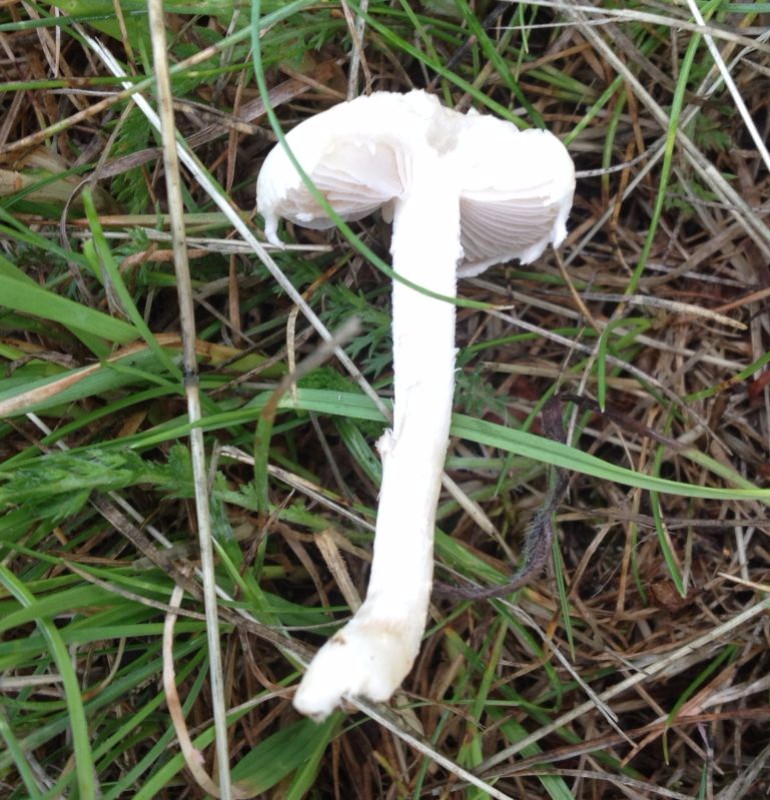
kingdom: Fungi
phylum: Basidiomycota
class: Agaricomycetes
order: Agaricales
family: Strophariaceae
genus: Agrocybe
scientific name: Agrocybe praecox
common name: tidlig agerhat
